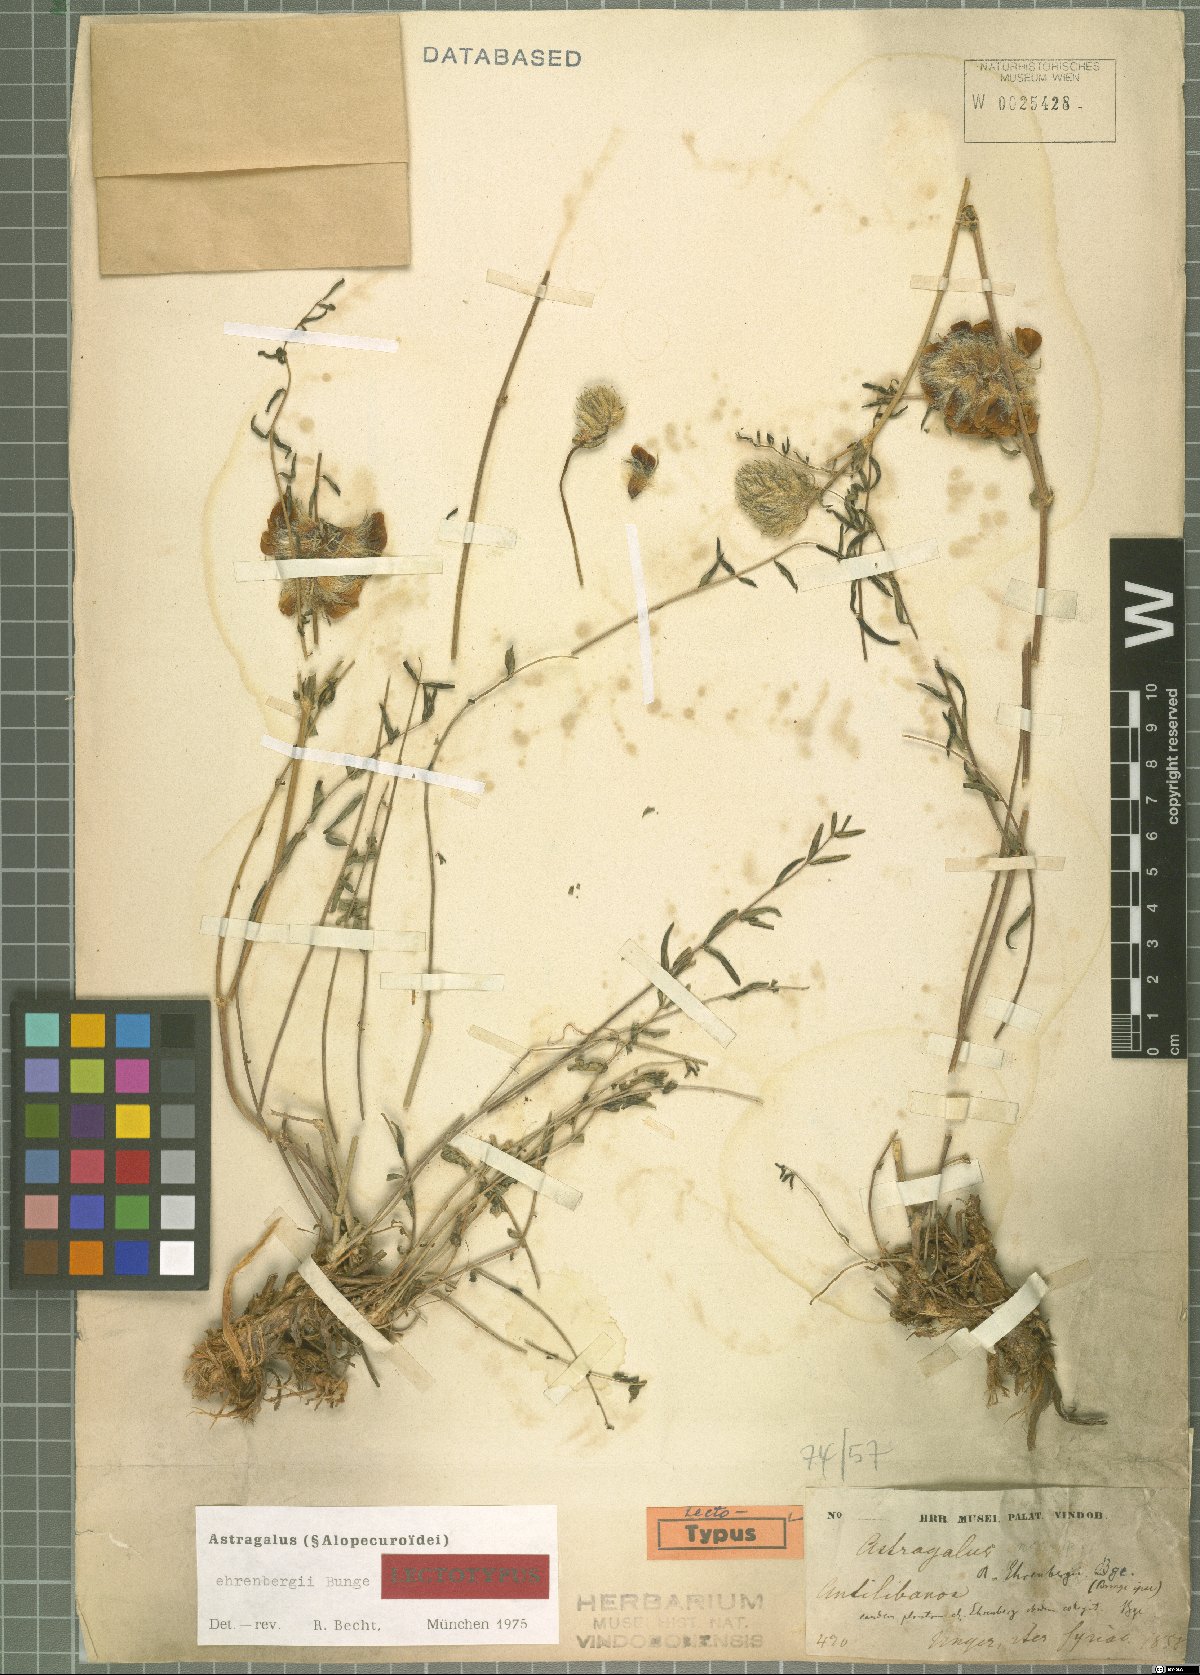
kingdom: Plantae
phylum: Tracheophyta
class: Magnoliopsida
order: Fabales
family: Fabaceae
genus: Astragalus
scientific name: Astragalus ehrenbergii
